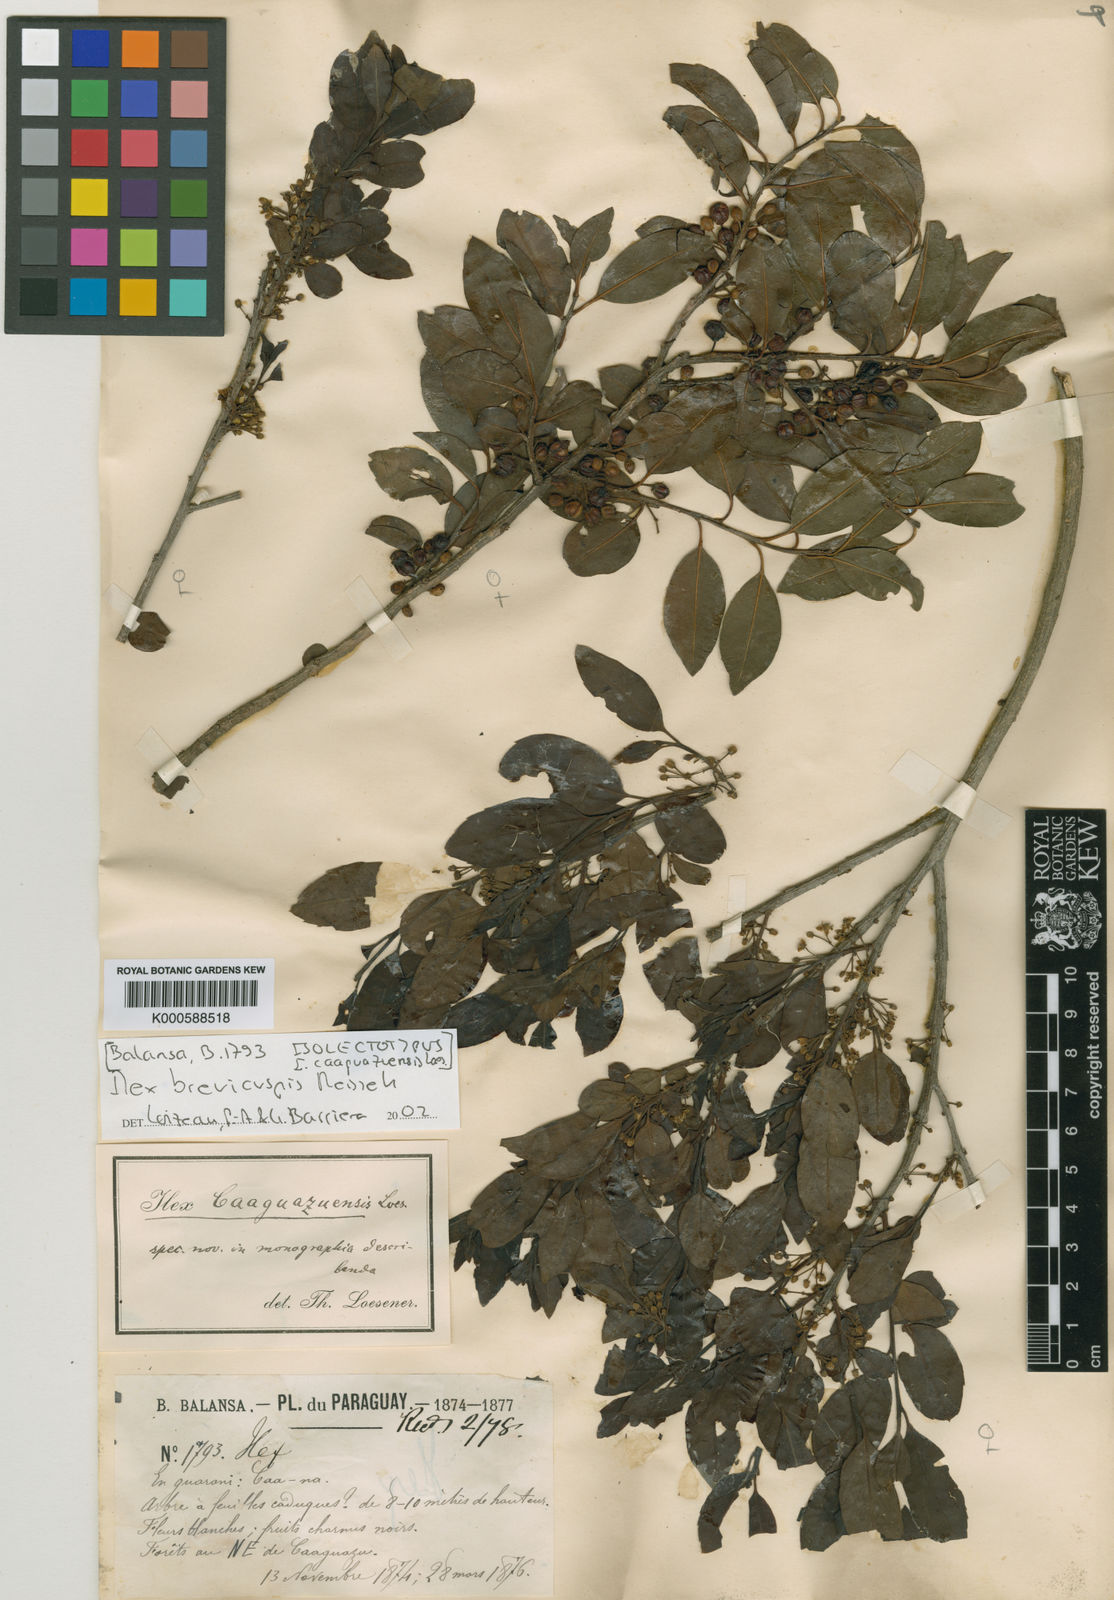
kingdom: Plantae
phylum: Tracheophyta
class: Magnoliopsida
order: Aquifoliales
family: Aquifoliaceae
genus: Ilex
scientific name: Ilex
